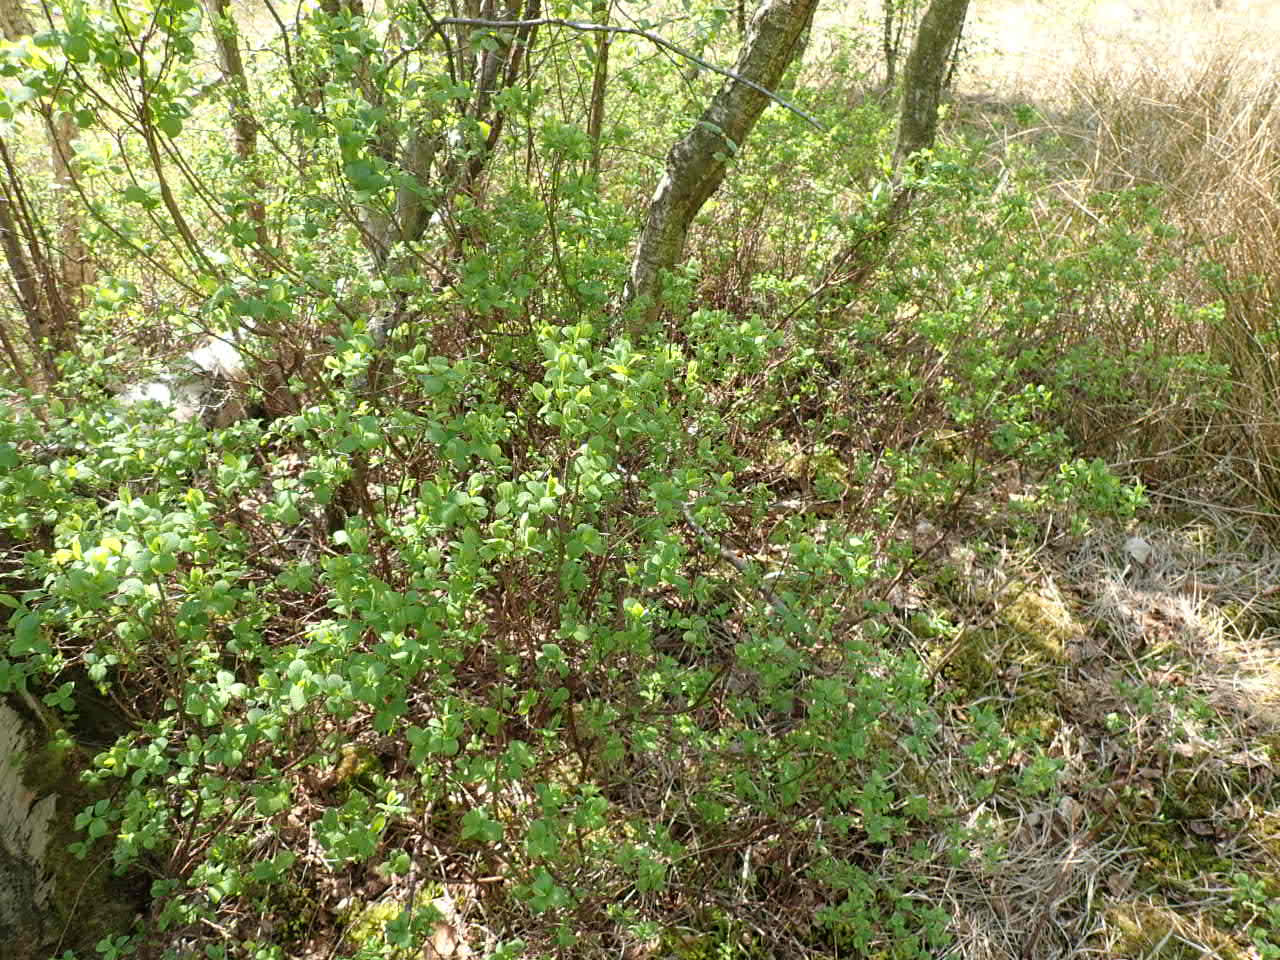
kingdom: Plantae
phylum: Tracheophyta
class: Magnoliopsida
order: Ericales
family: Ericaceae
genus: Vaccinium
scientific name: Vaccinium uliginosum
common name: Mose-bølle
